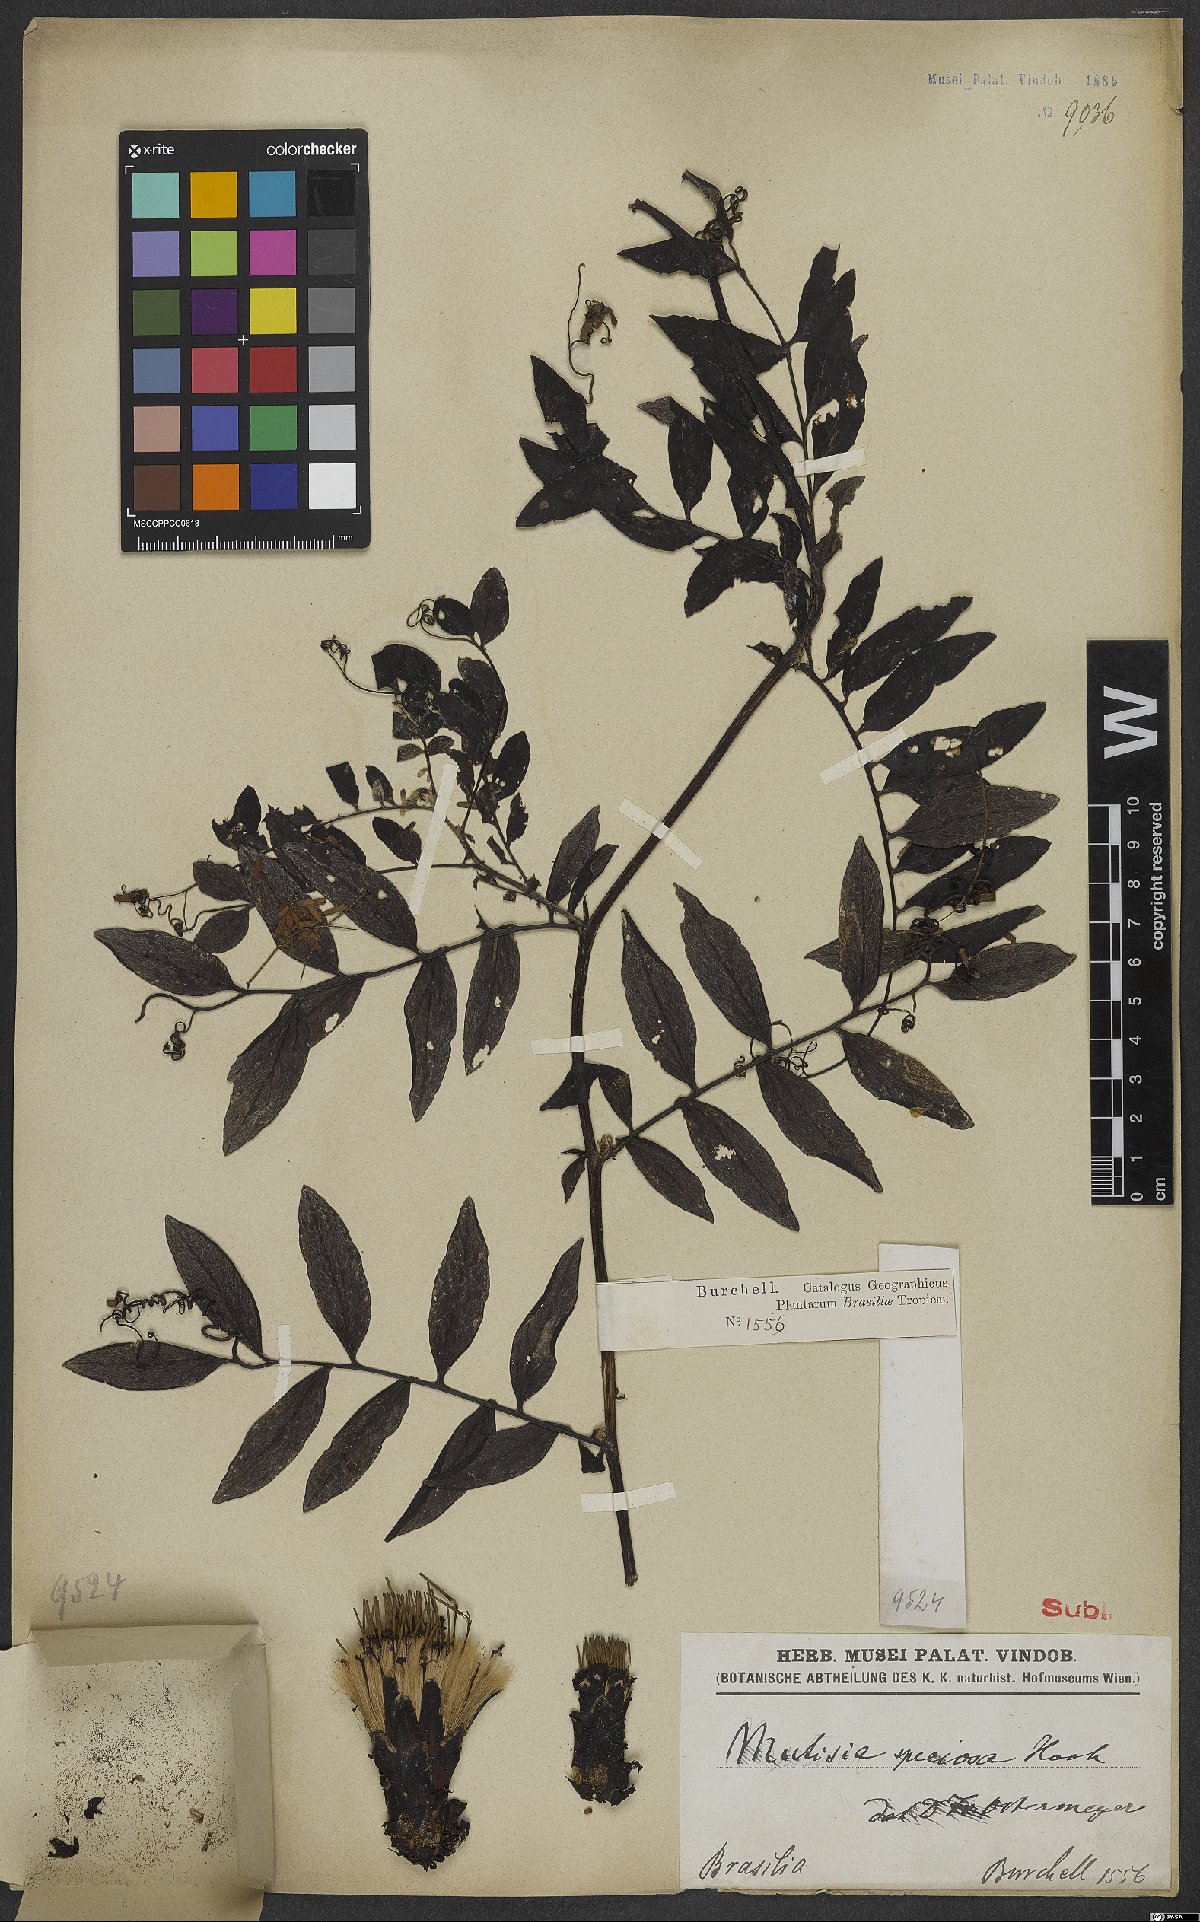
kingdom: Plantae
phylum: Tracheophyta
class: Magnoliopsida
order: Asterales
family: Asteraceae
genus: Mutisia
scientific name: Mutisia speciosa
